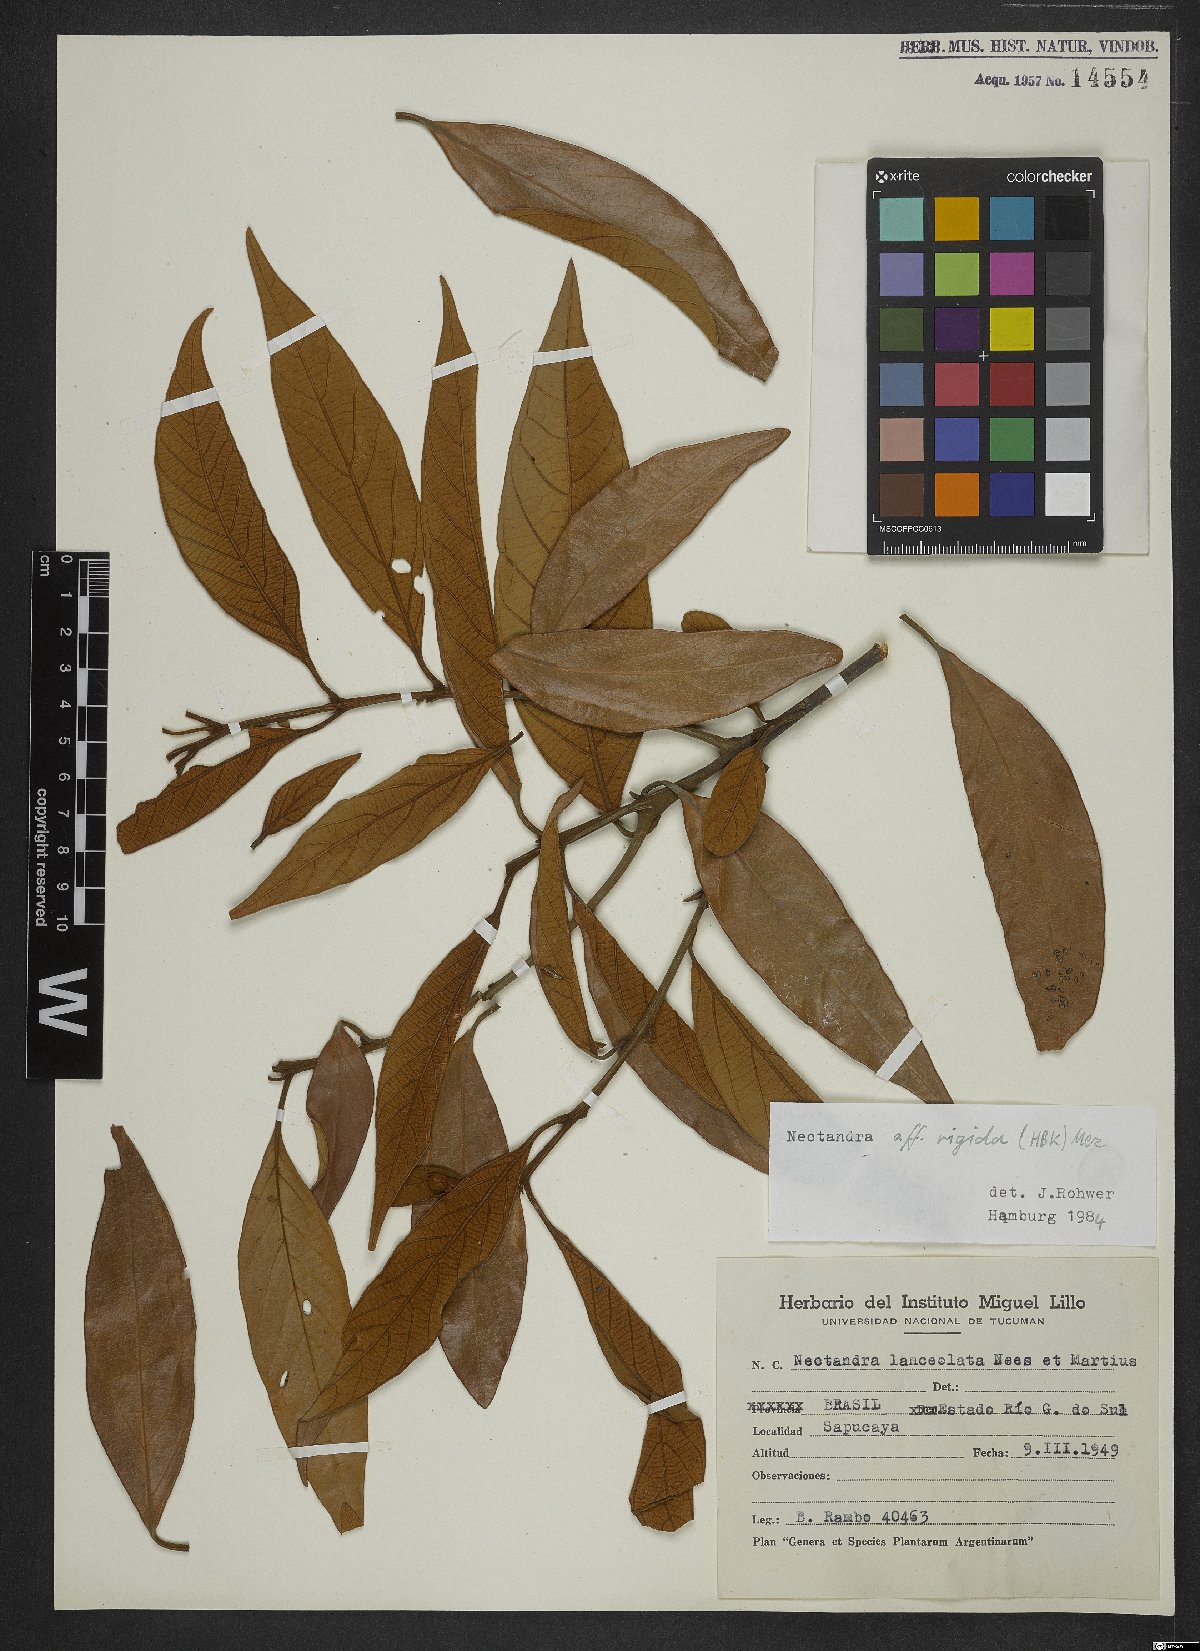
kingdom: Plantae
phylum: Tracheophyta
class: Magnoliopsida
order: Laurales
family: Lauraceae
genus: Nectandra
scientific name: Nectandra oppositifolia
